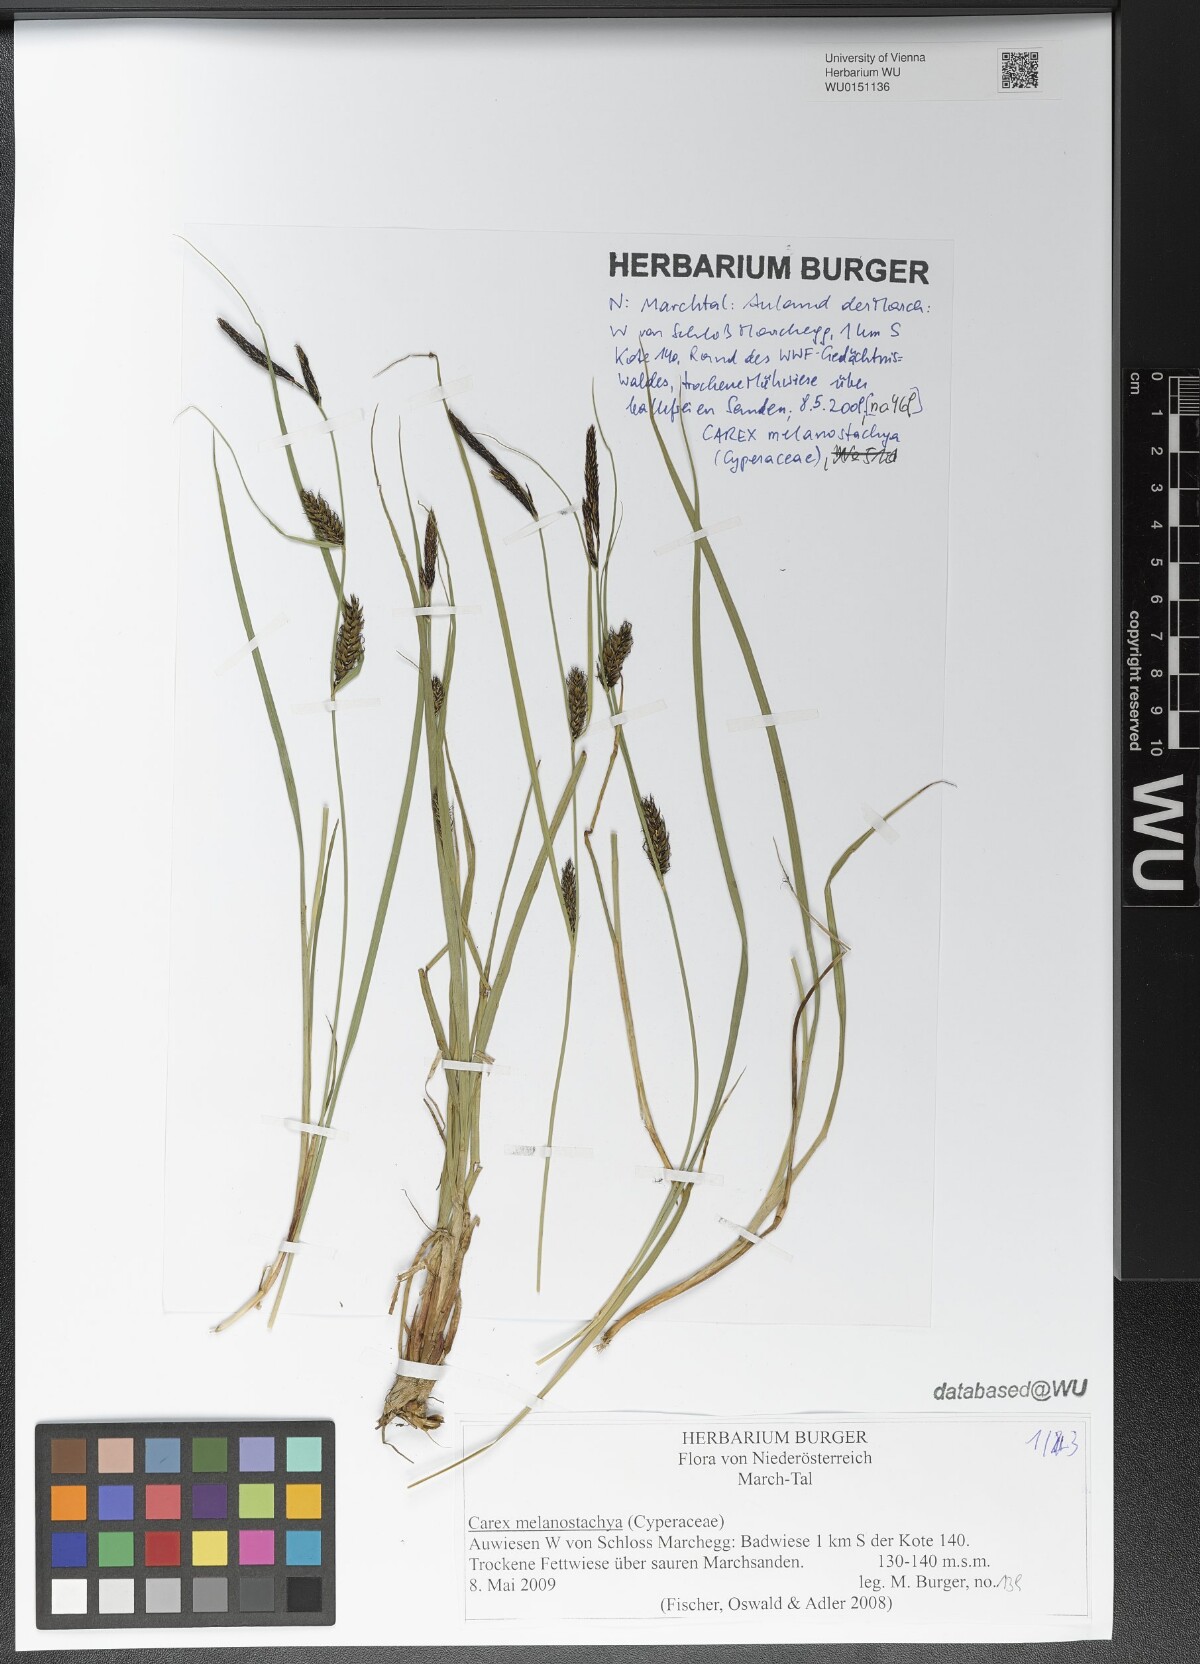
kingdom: Plantae
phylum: Tracheophyta
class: Liliopsida
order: Poales
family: Cyperaceae
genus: Carex
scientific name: Carex melanostachya
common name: Black-spiked sedge
